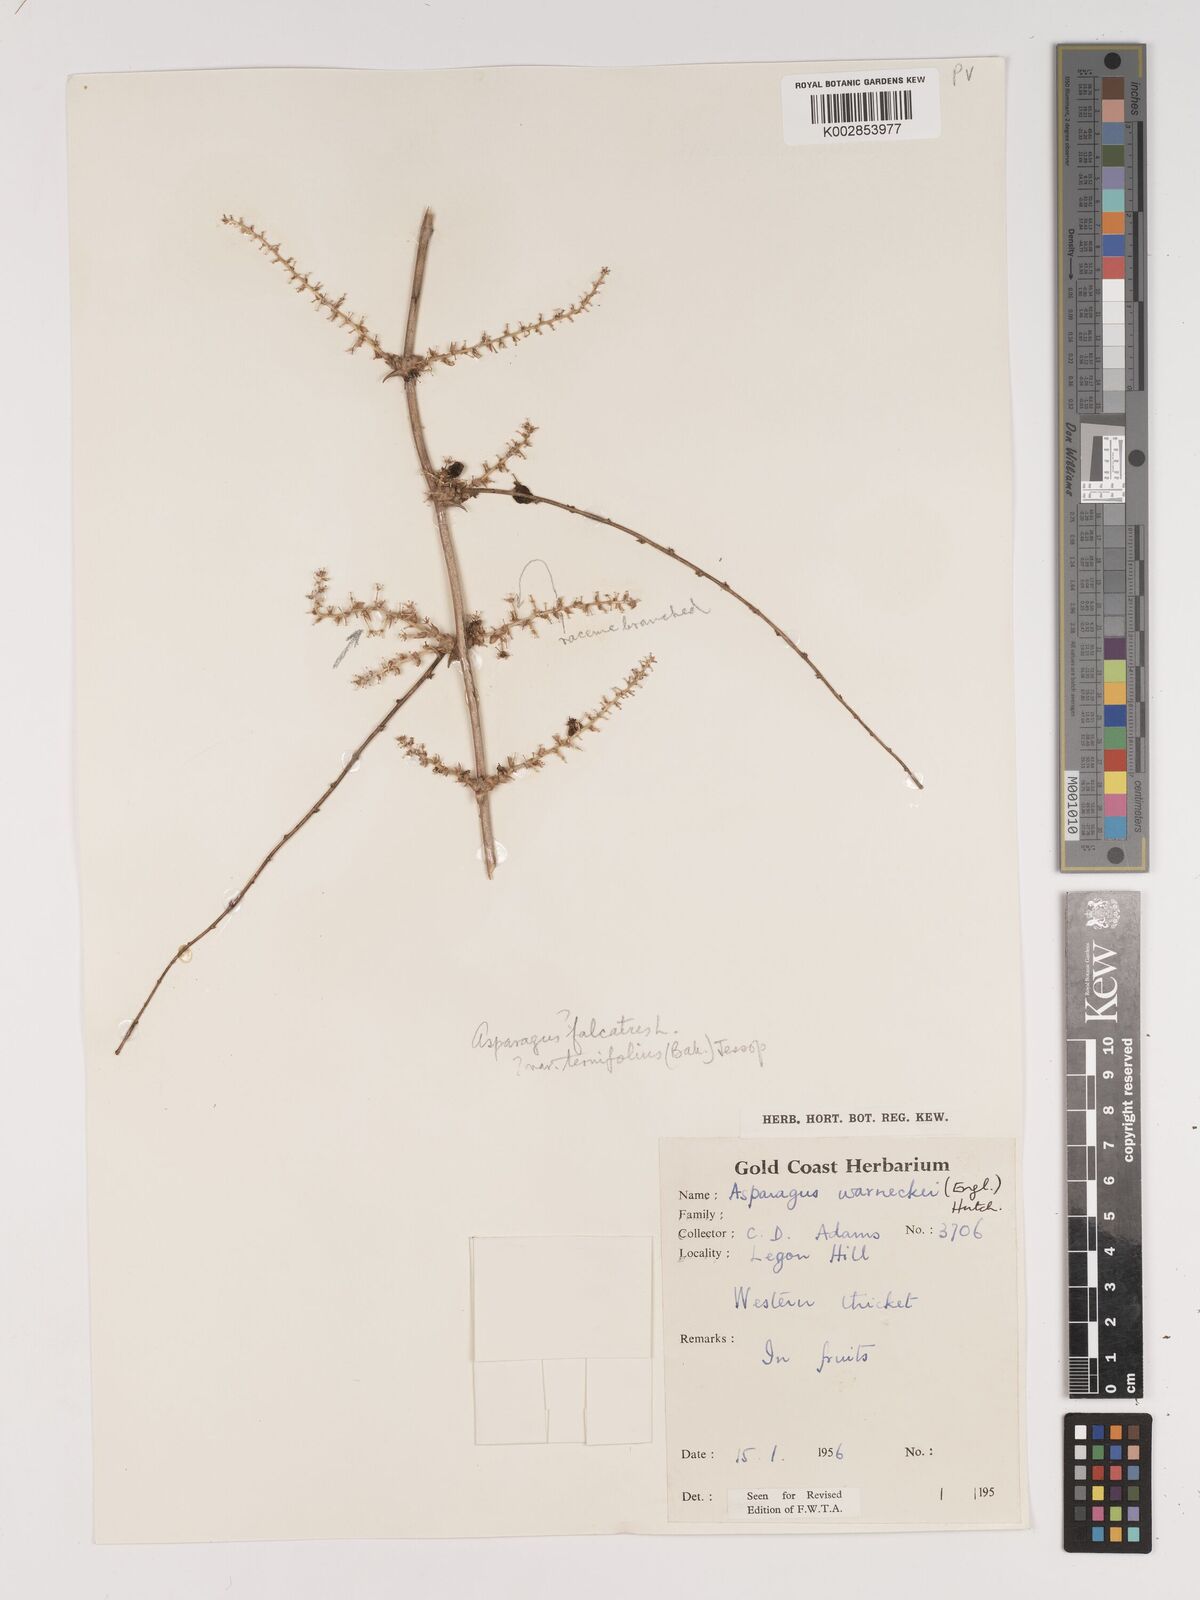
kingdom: Plantae
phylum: Tracheophyta
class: Liliopsida
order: Asparagales
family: Asparagaceae
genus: Asparagus
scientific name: Asparagus aethiopicus
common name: Sprenger's asparagus fern
